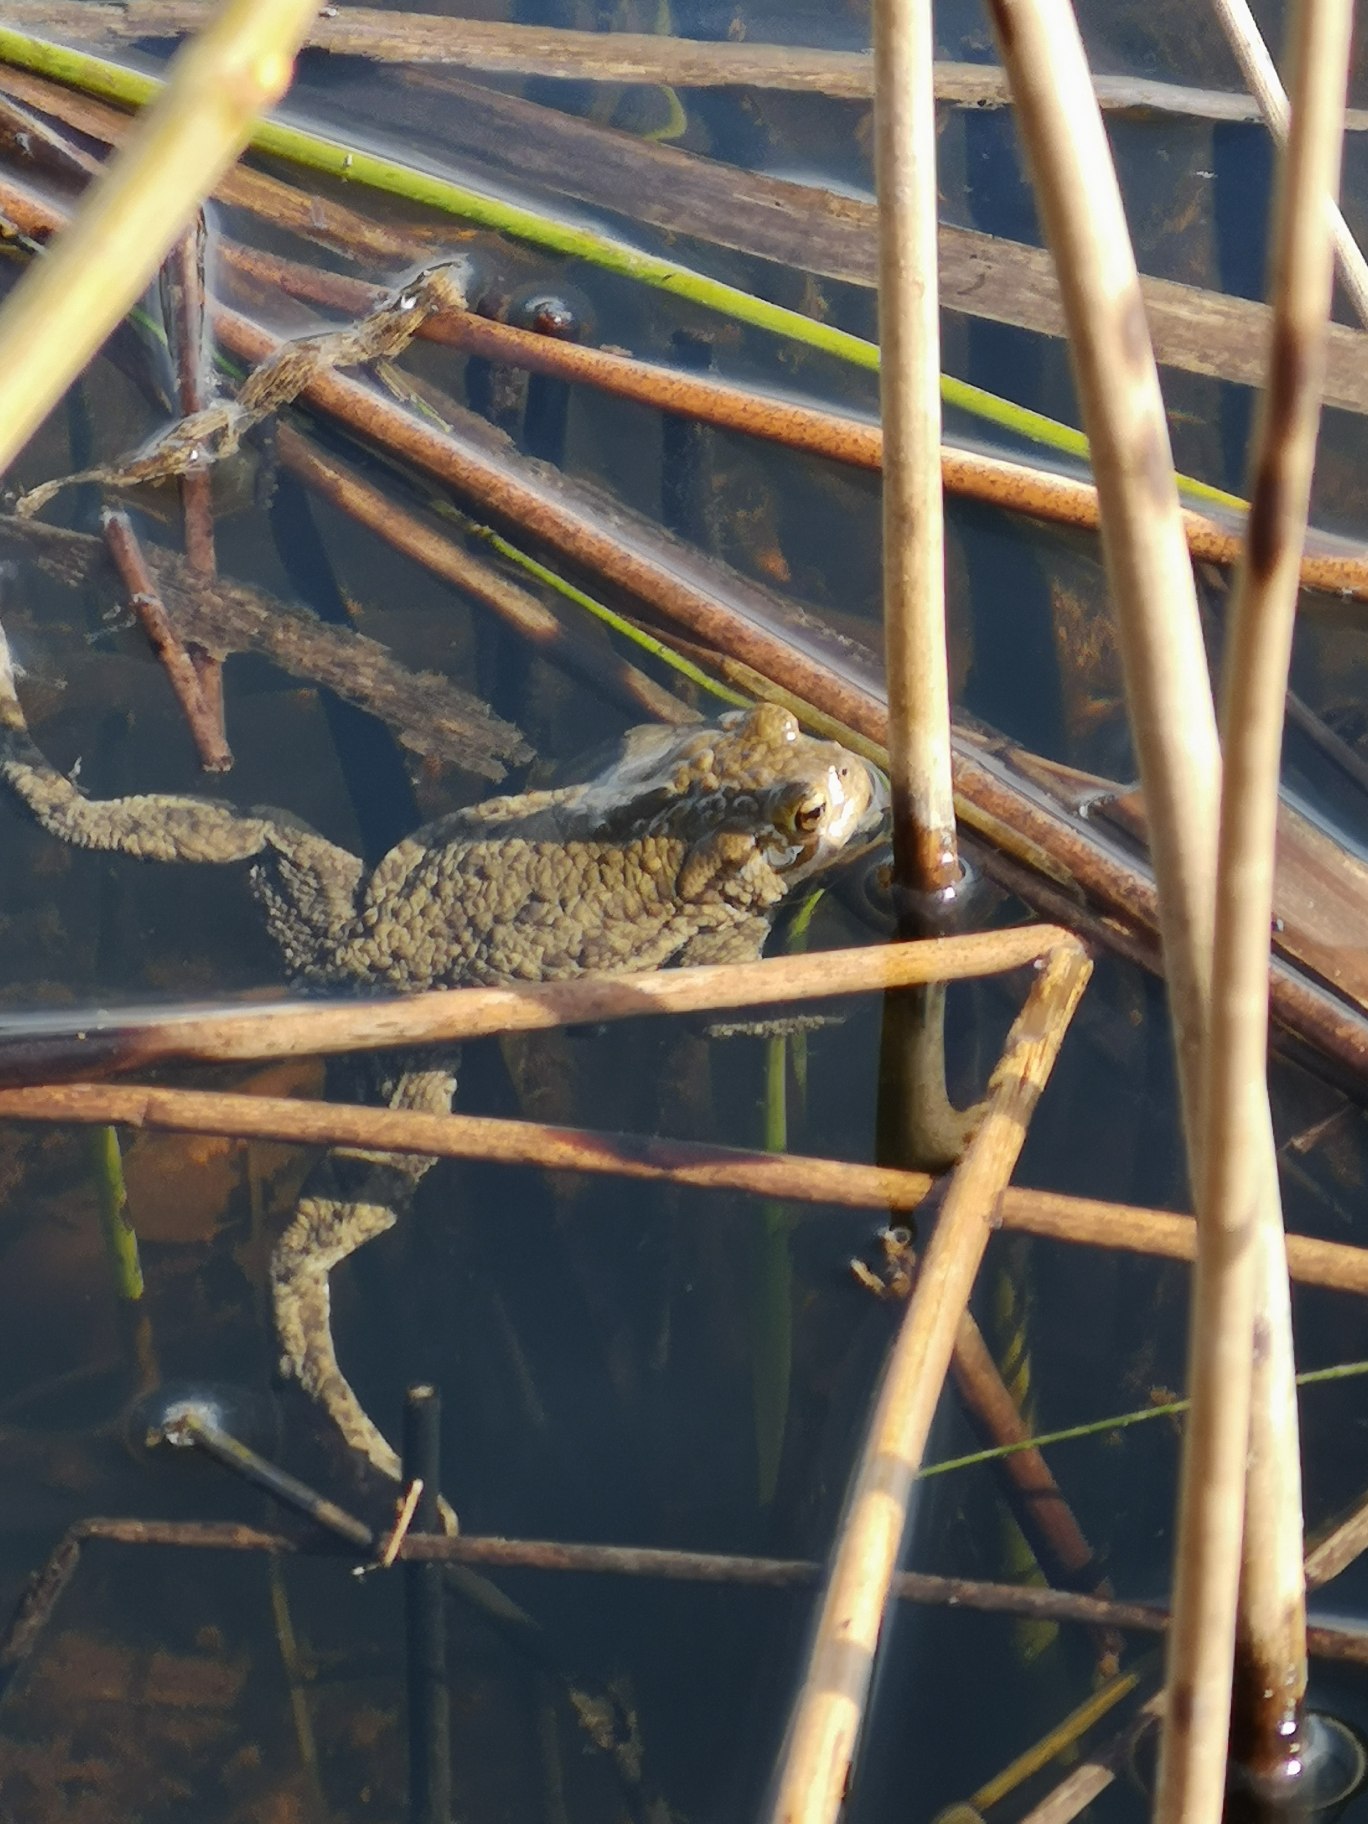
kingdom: Animalia
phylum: Chordata
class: Amphibia
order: Anura
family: Bufonidae
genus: Bufo
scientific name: Bufo bufo
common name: Skrubtudse
